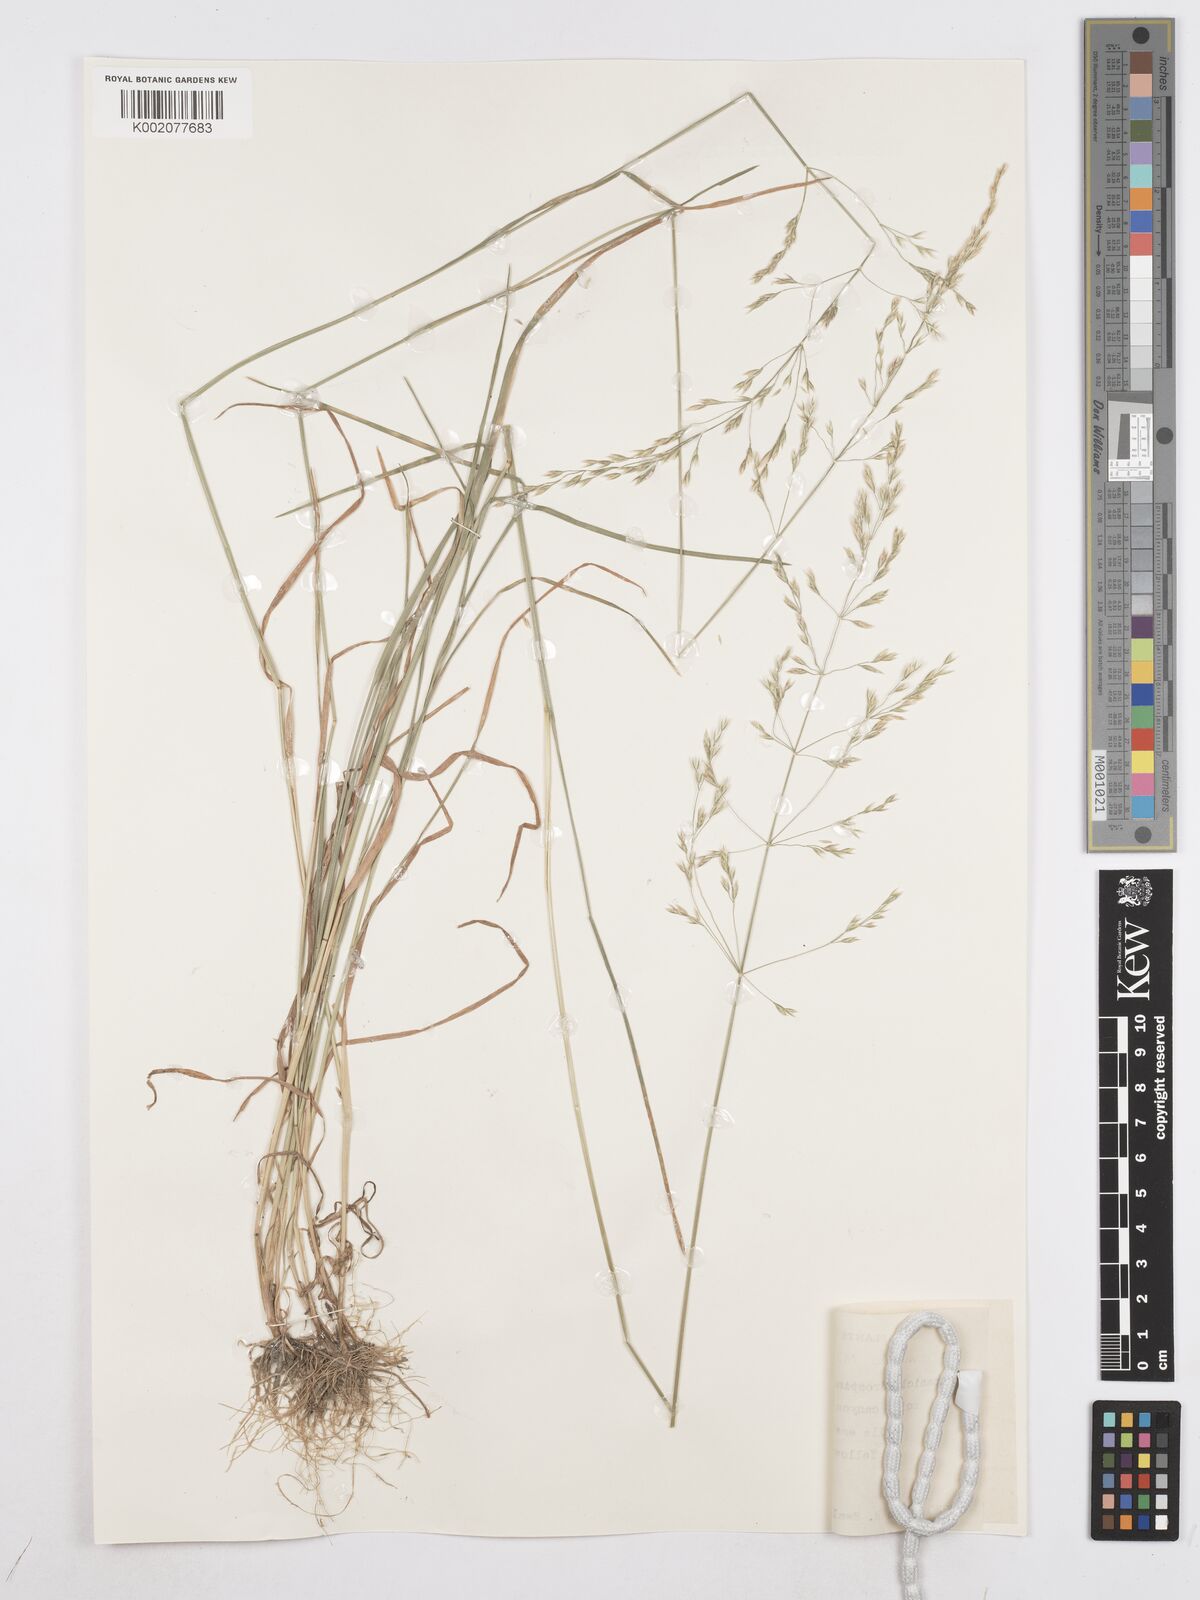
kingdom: Plantae
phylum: Tracheophyta
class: Liliopsida
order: Poales
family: Poaceae
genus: Poa
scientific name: Poa secunda
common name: Sandberg bluegrass
